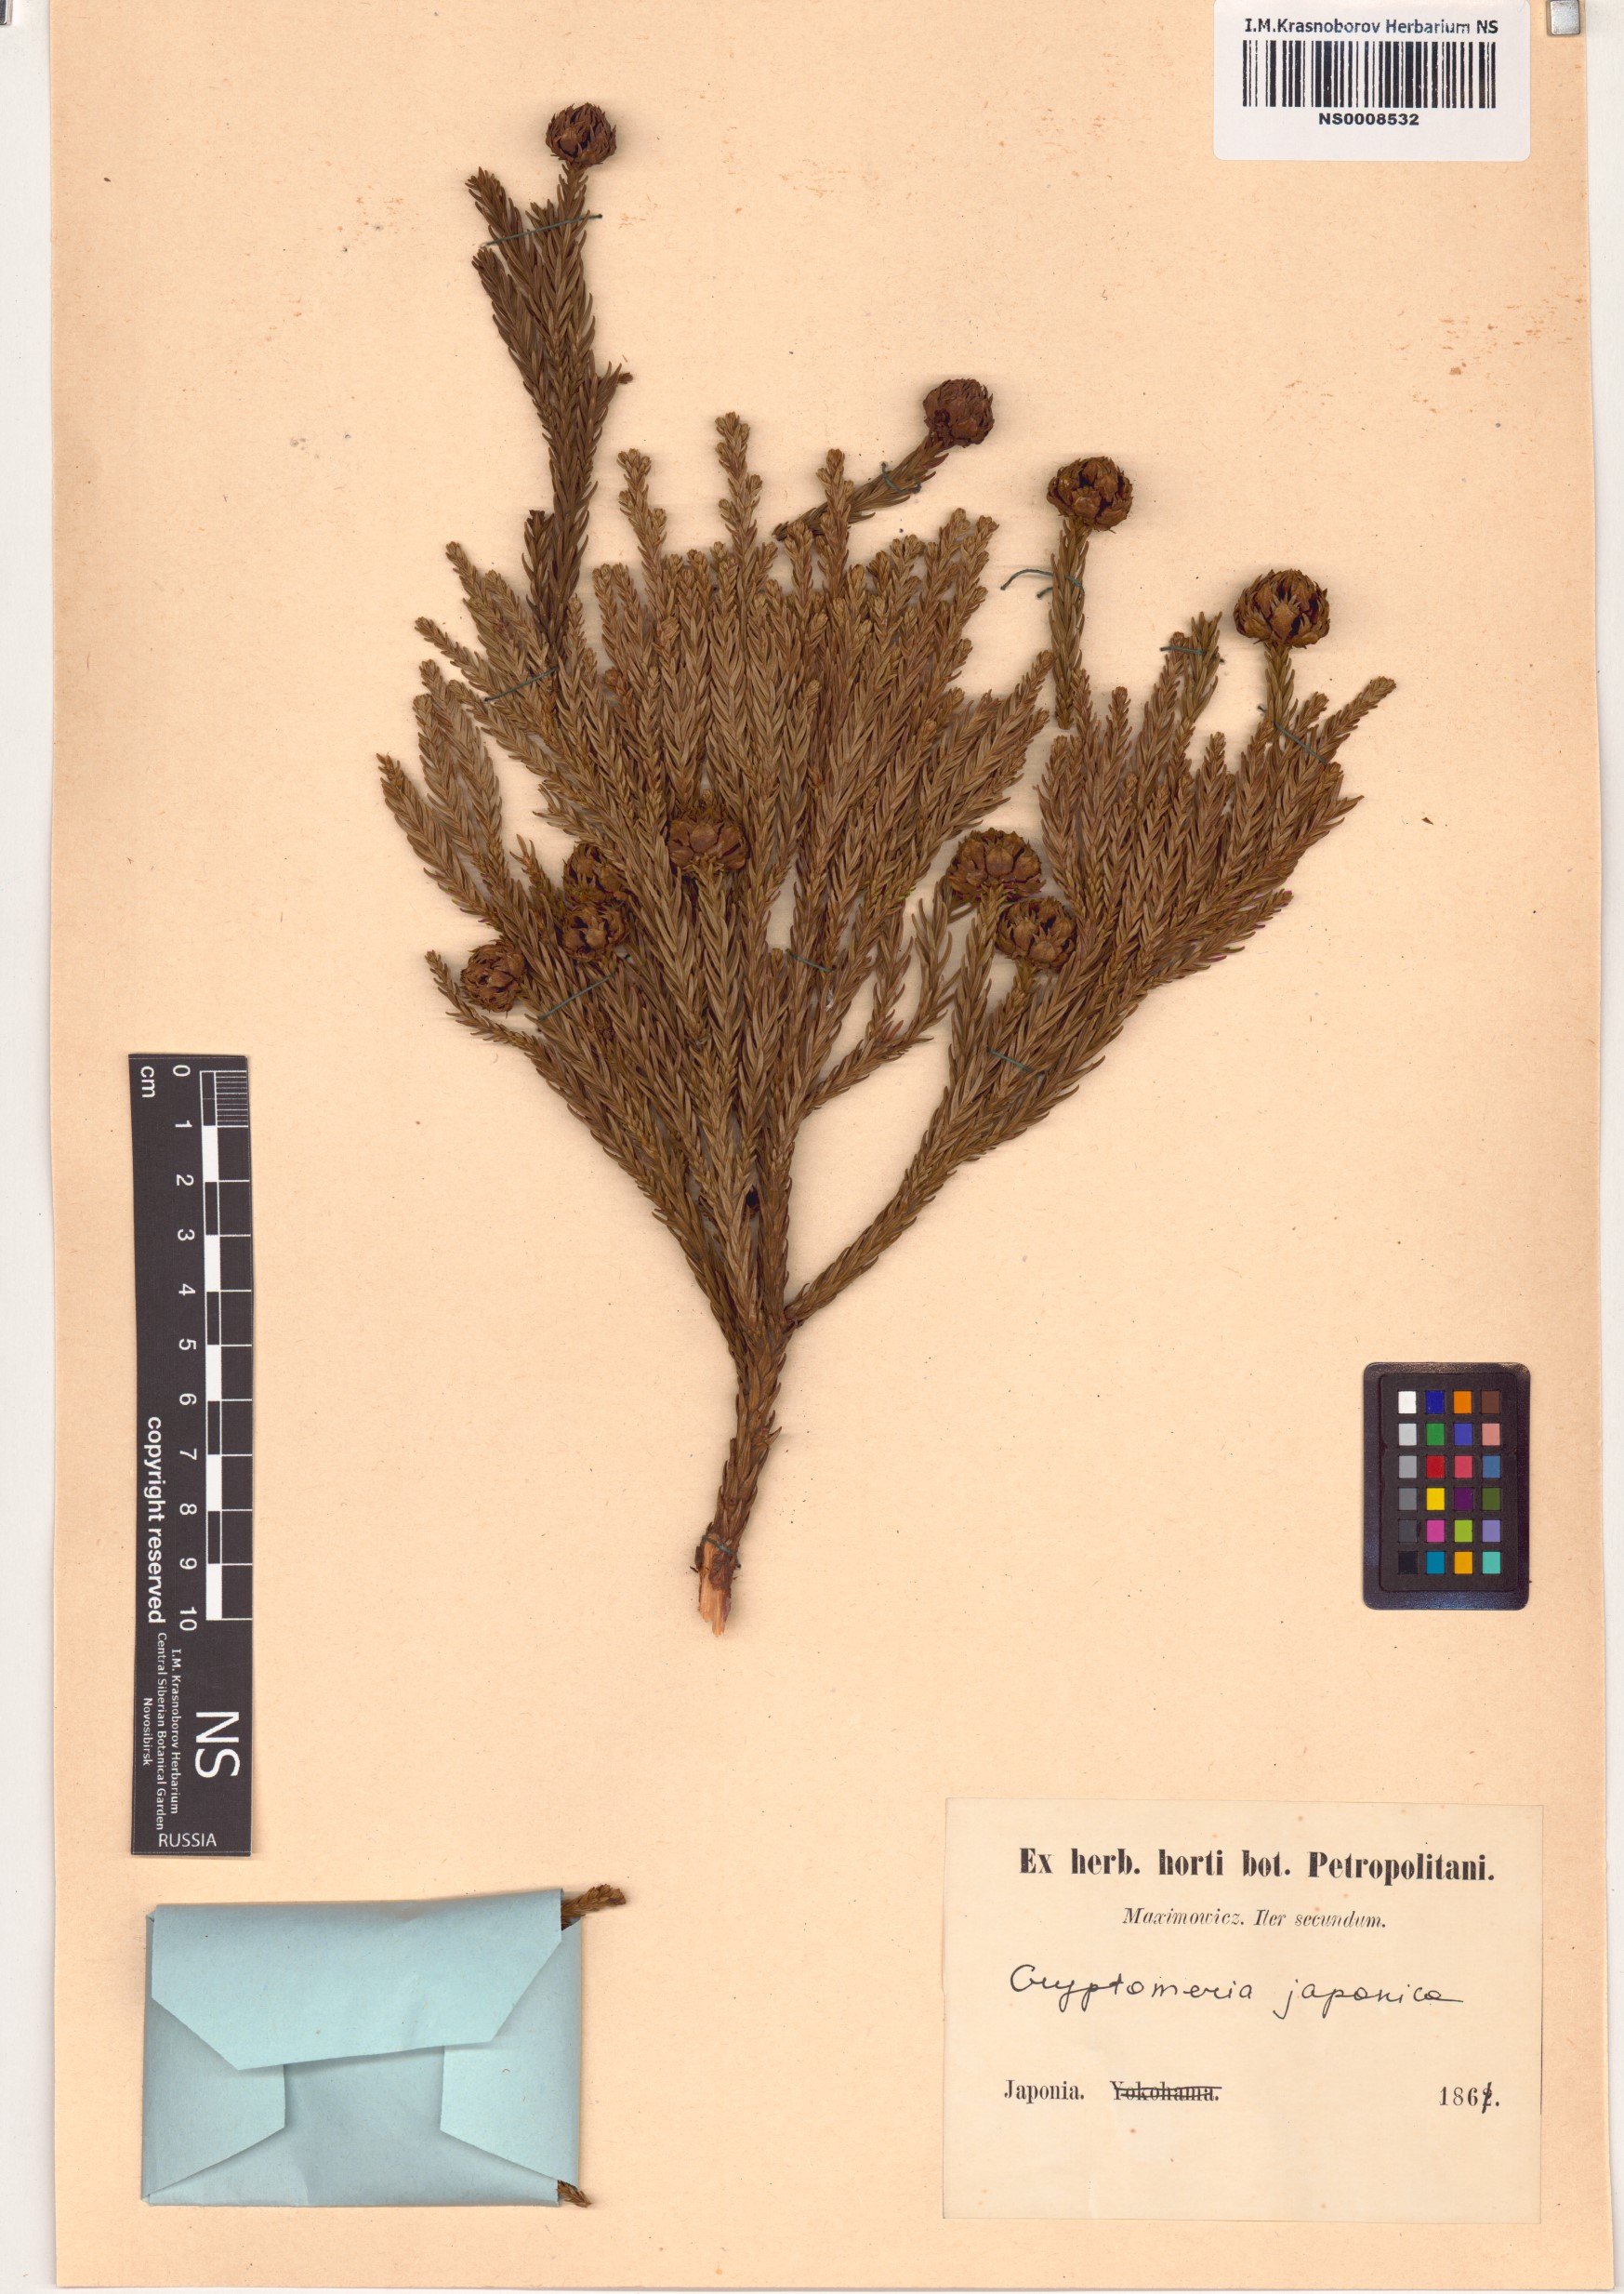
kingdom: Plantae
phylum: Tracheophyta
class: Pinopsida
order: Pinales
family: Cupressaceae
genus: Cryptomeria
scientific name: Cryptomeria japonica
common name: Japanese cedar
